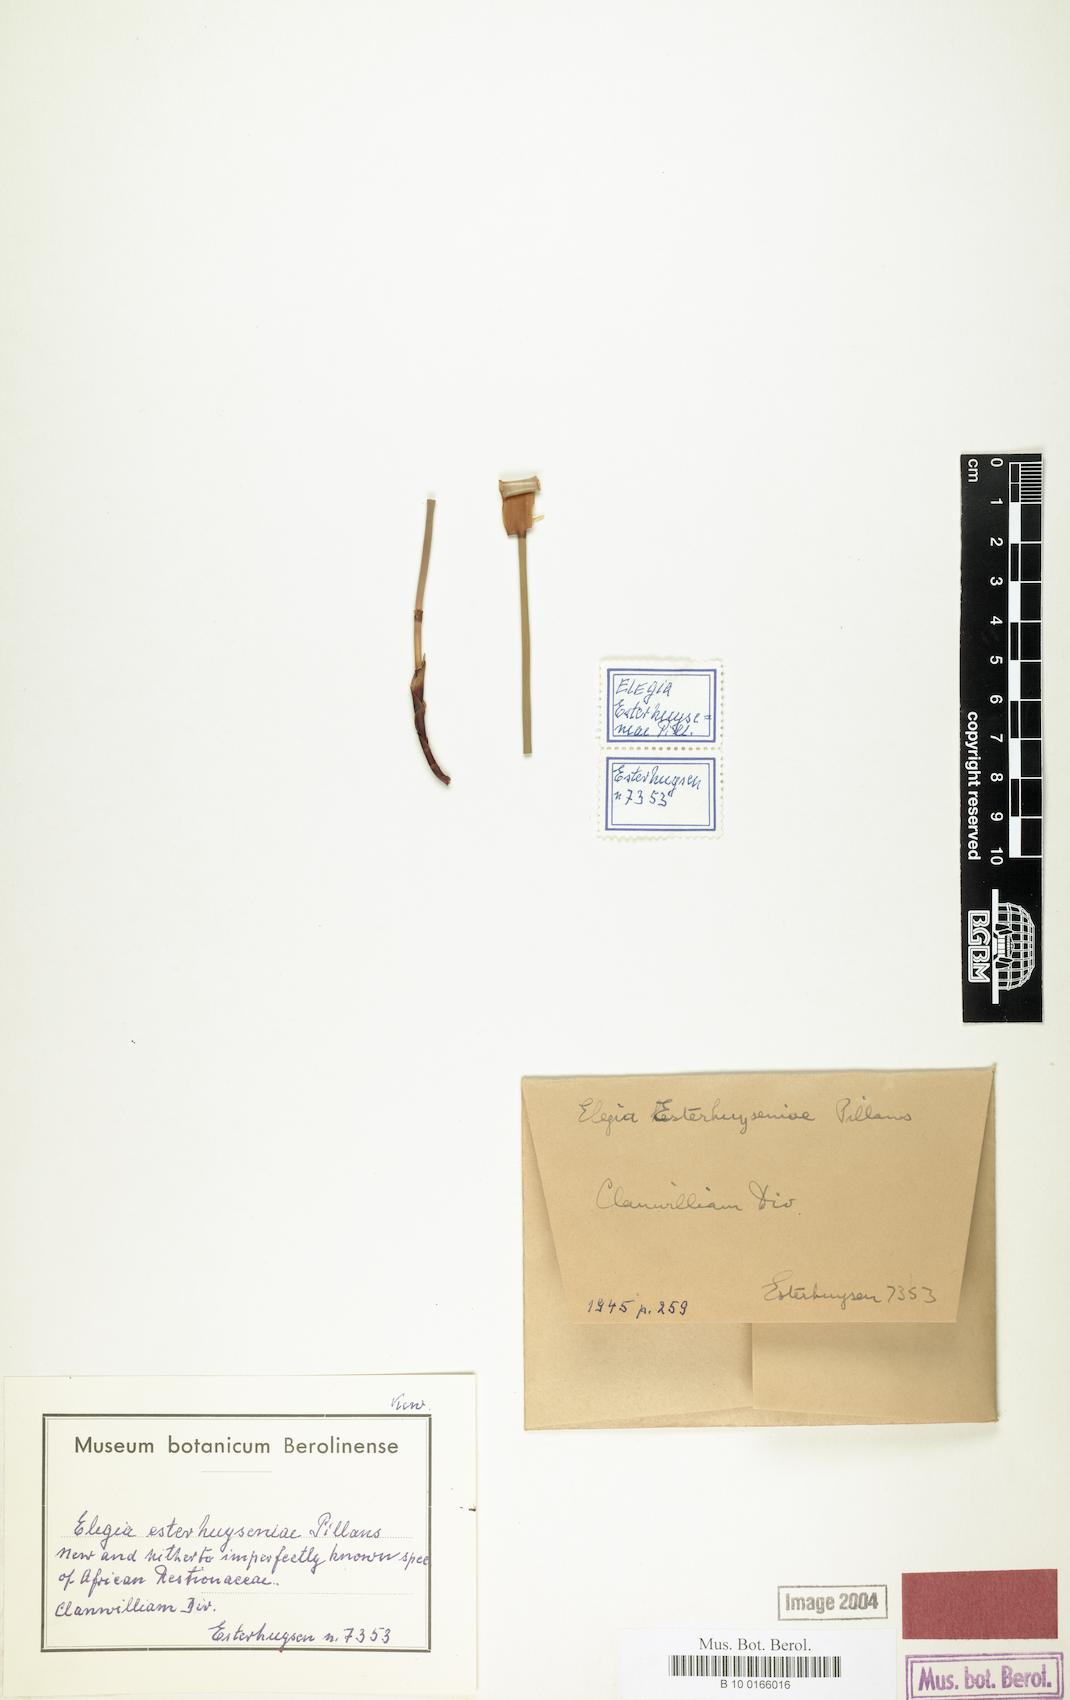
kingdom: Plantae
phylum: Tracheophyta
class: Liliopsida
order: Poales
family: Restionaceae
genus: Elegia
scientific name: Elegia esterhuyseniae
